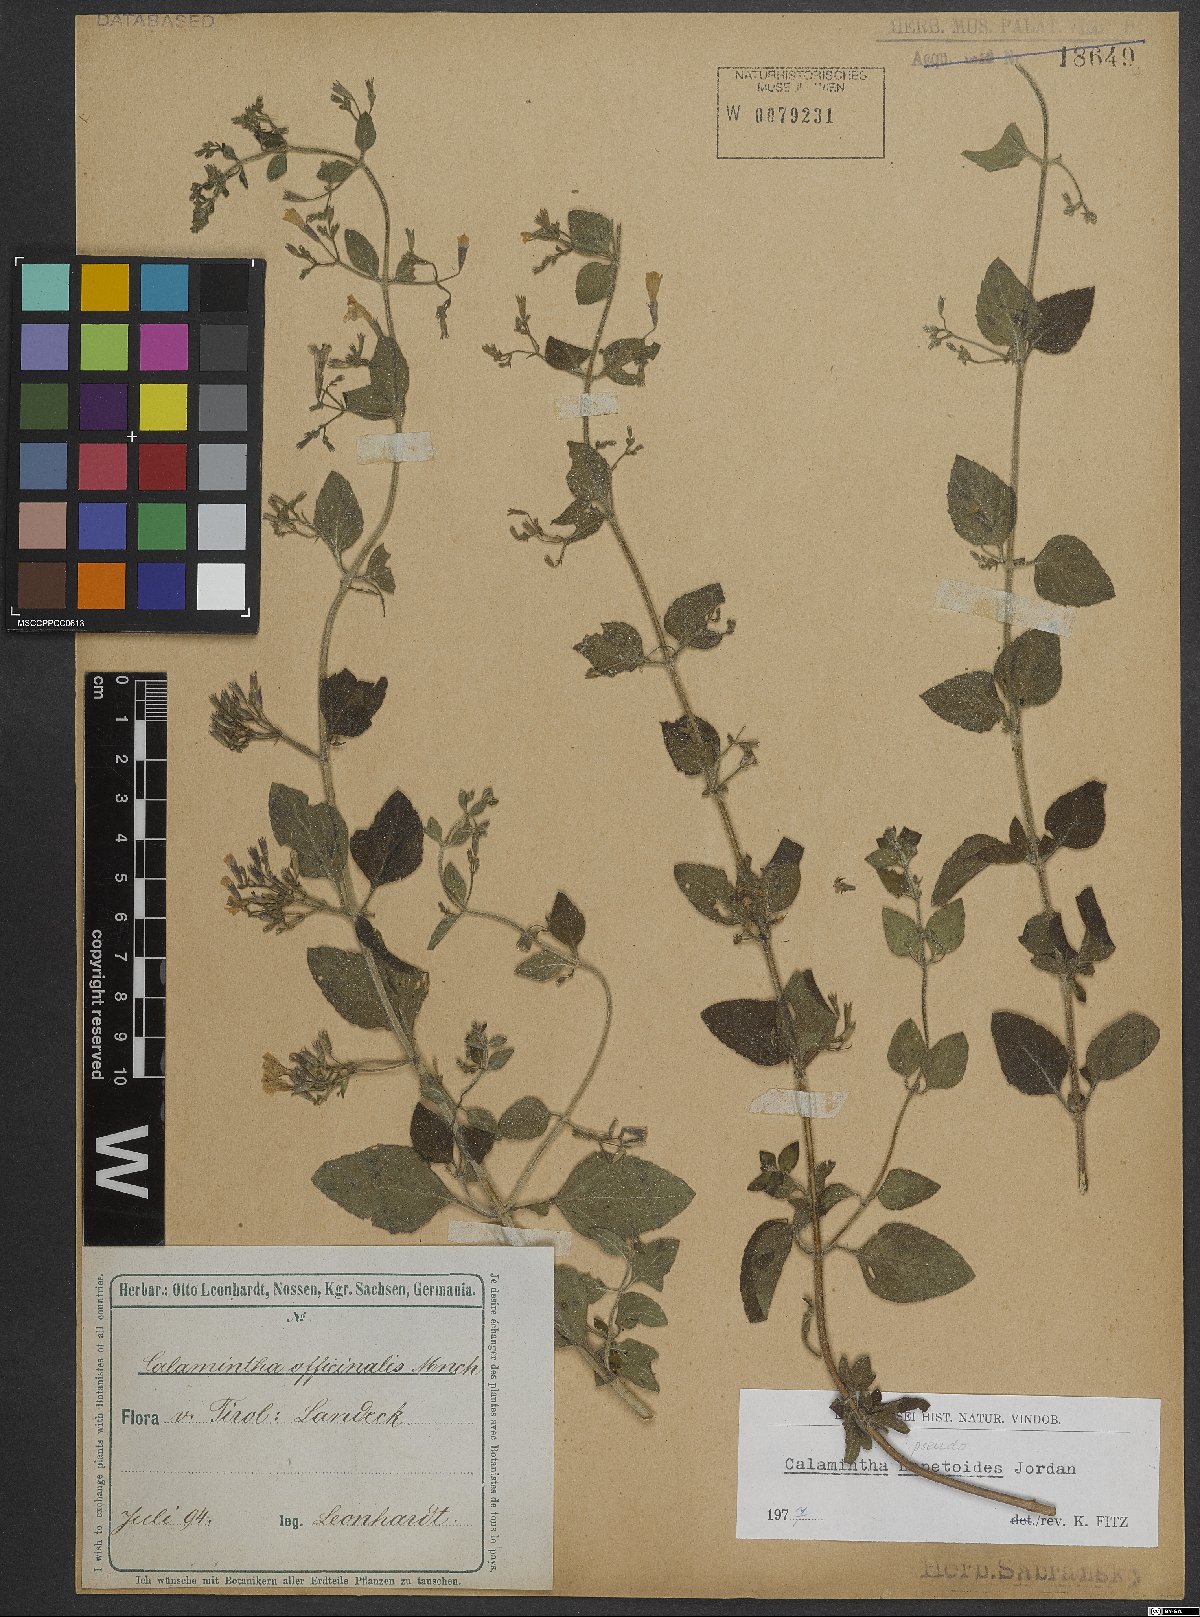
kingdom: Plantae
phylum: Tracheophyta
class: Magnoliopsida
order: Lamiales
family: Lamiaceae
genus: Clinopodium
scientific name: Clinopodium nepeta
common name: Lesser calamint
